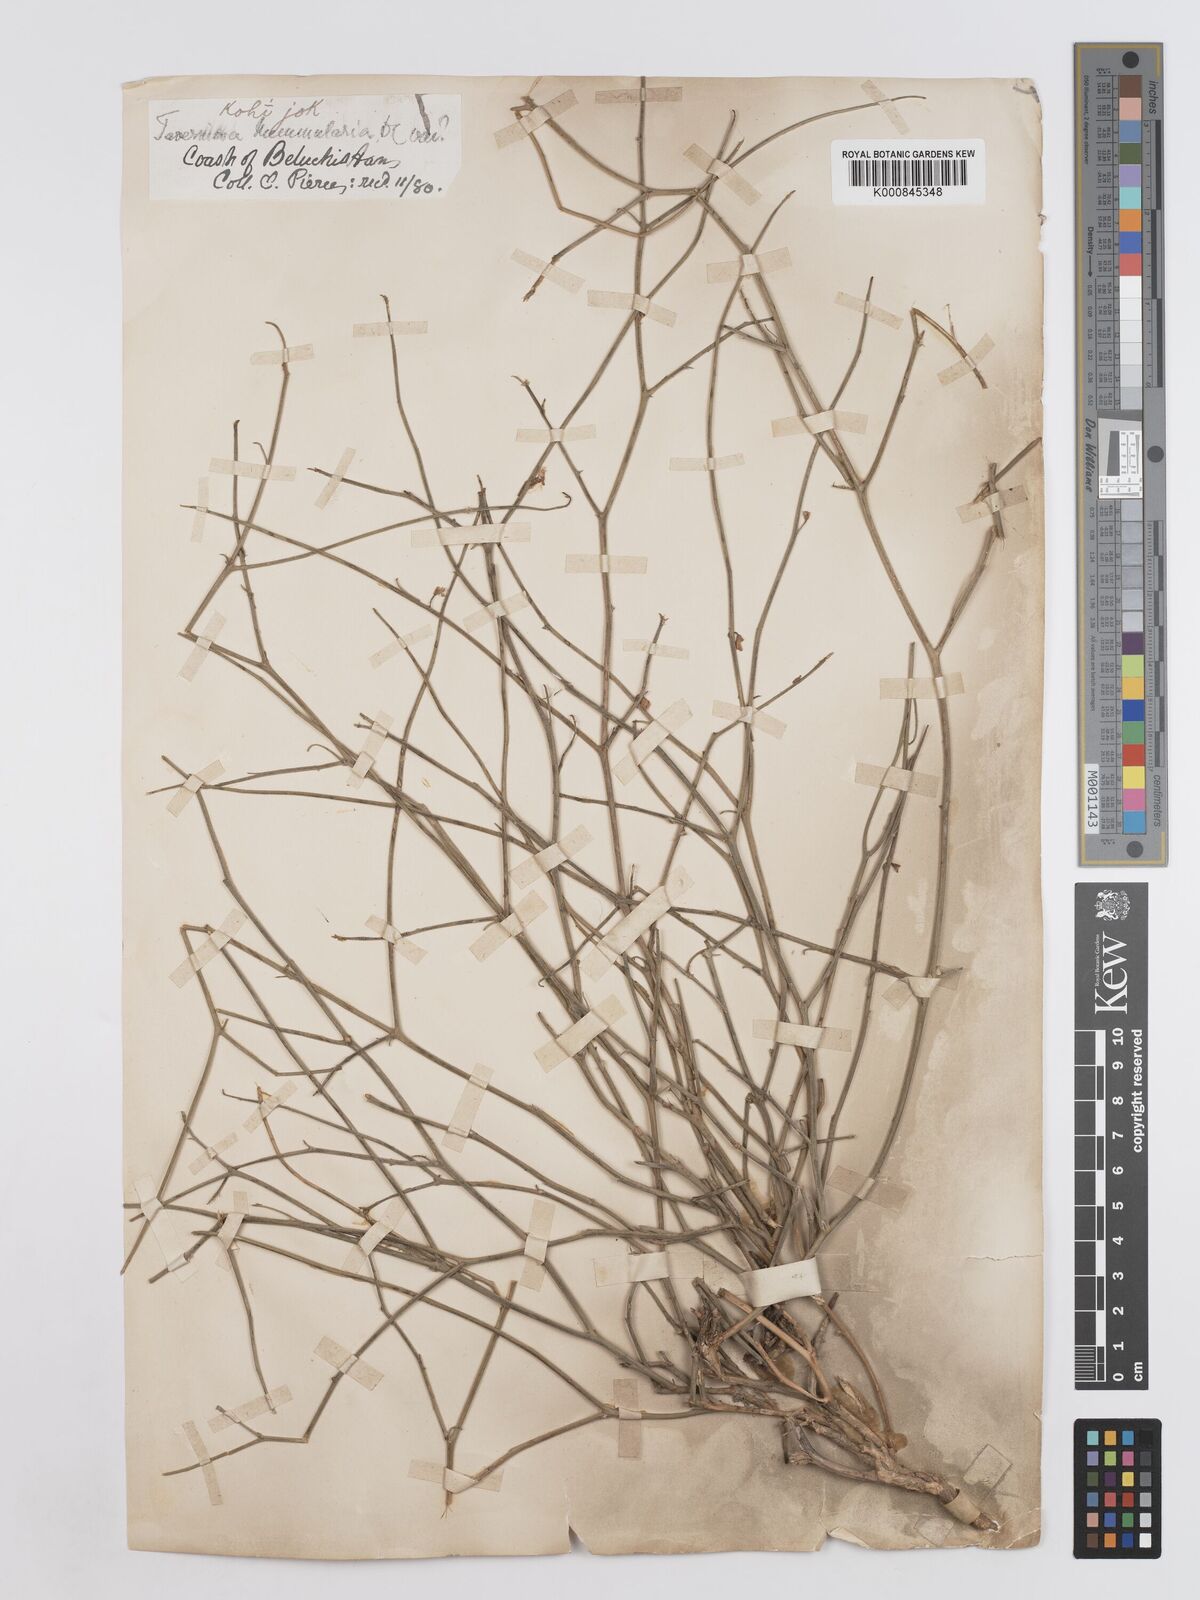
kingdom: Plantae
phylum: Tracheophyta
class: Magnoliopsida
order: Fabales
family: Fabaceae
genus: Taverniera
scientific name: Taverniera nummularia
